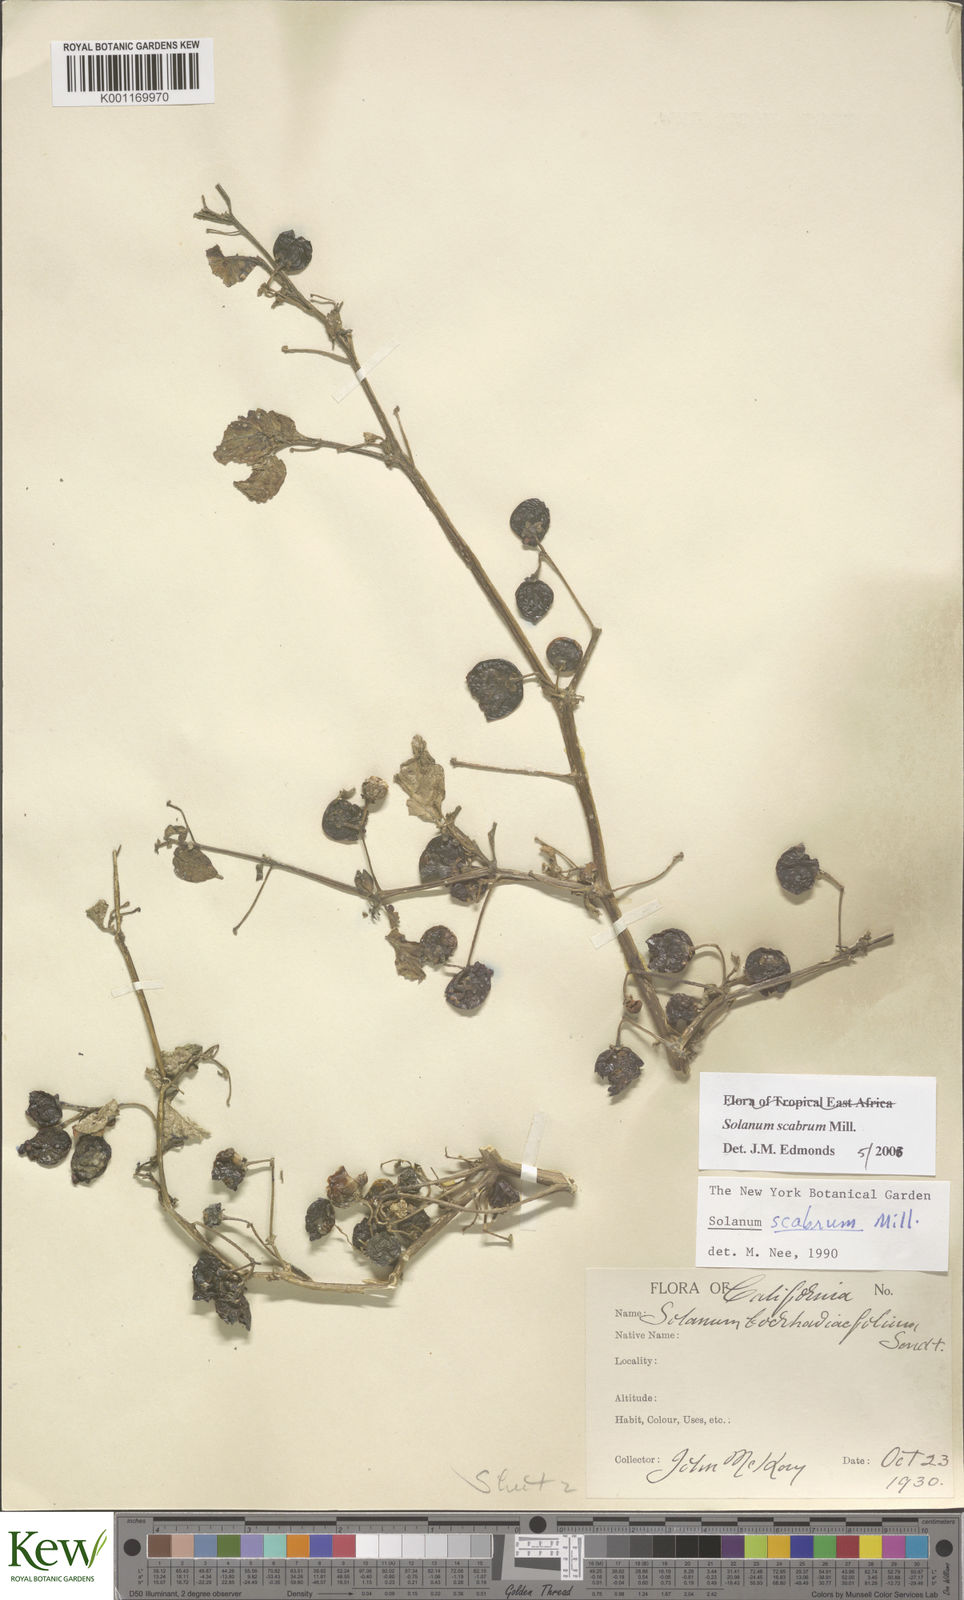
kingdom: Plantae
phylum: Tracheophyta
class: Magnoliopsida
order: Solanales
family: Solanaceae
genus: Solanum
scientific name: Solanum scabrum
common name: Garden-huckleberry
